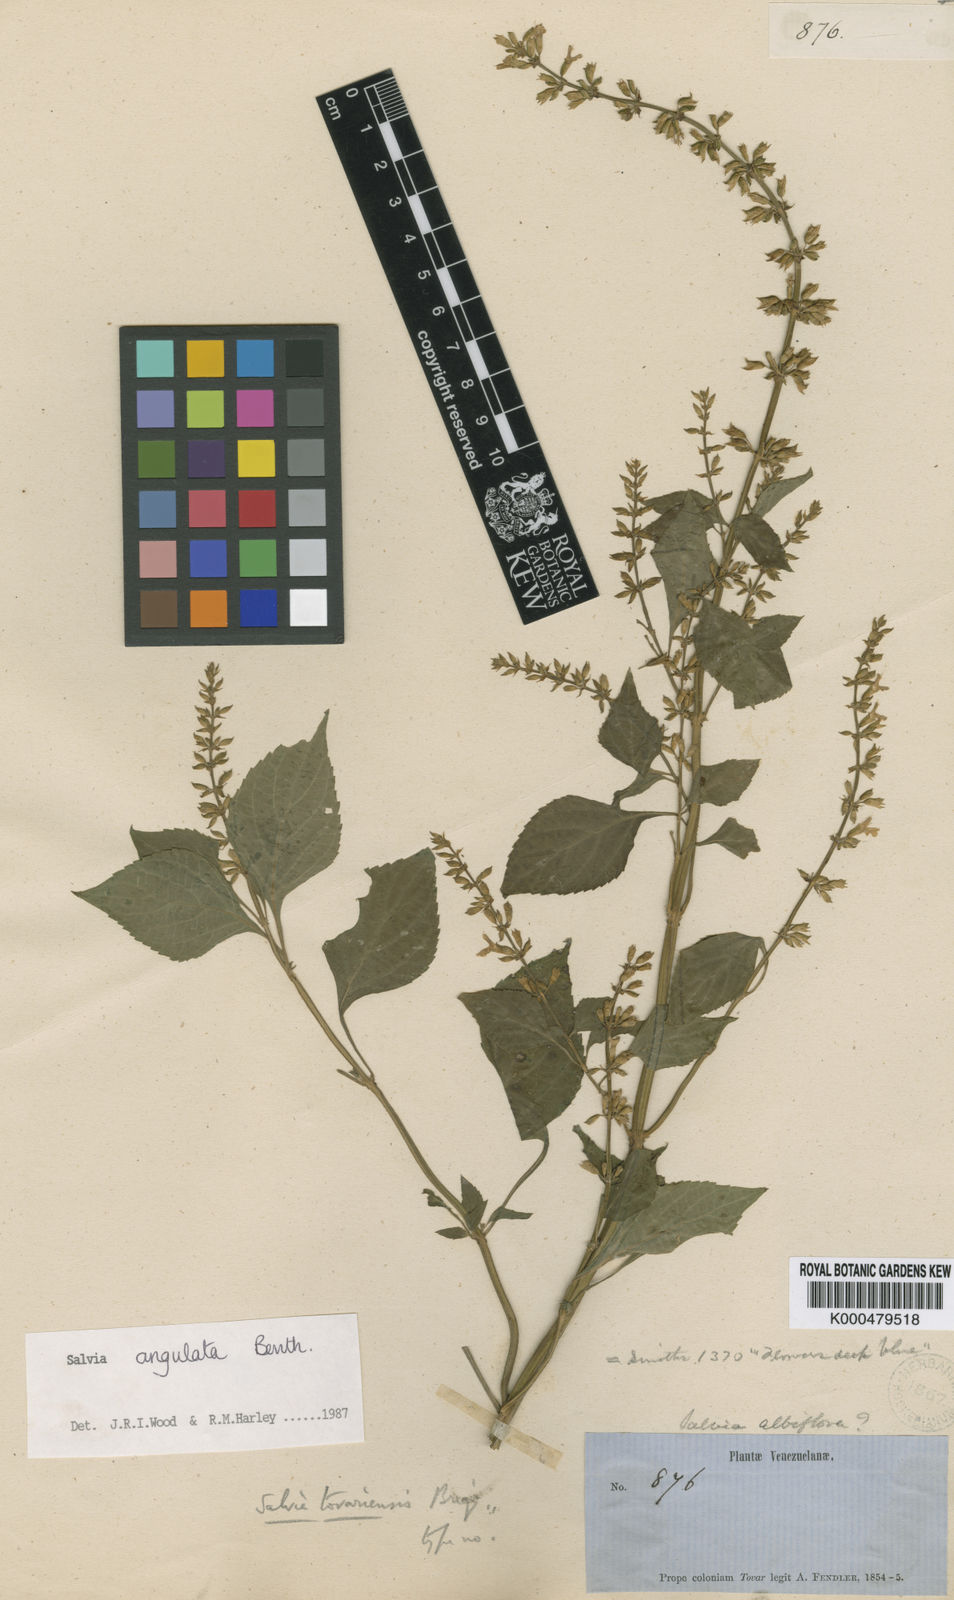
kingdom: Plantae
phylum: Tracheophyta
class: Magnoliopsida
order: Lamiales
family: Lamiaceae
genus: Salvia
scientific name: Salvia angulata
